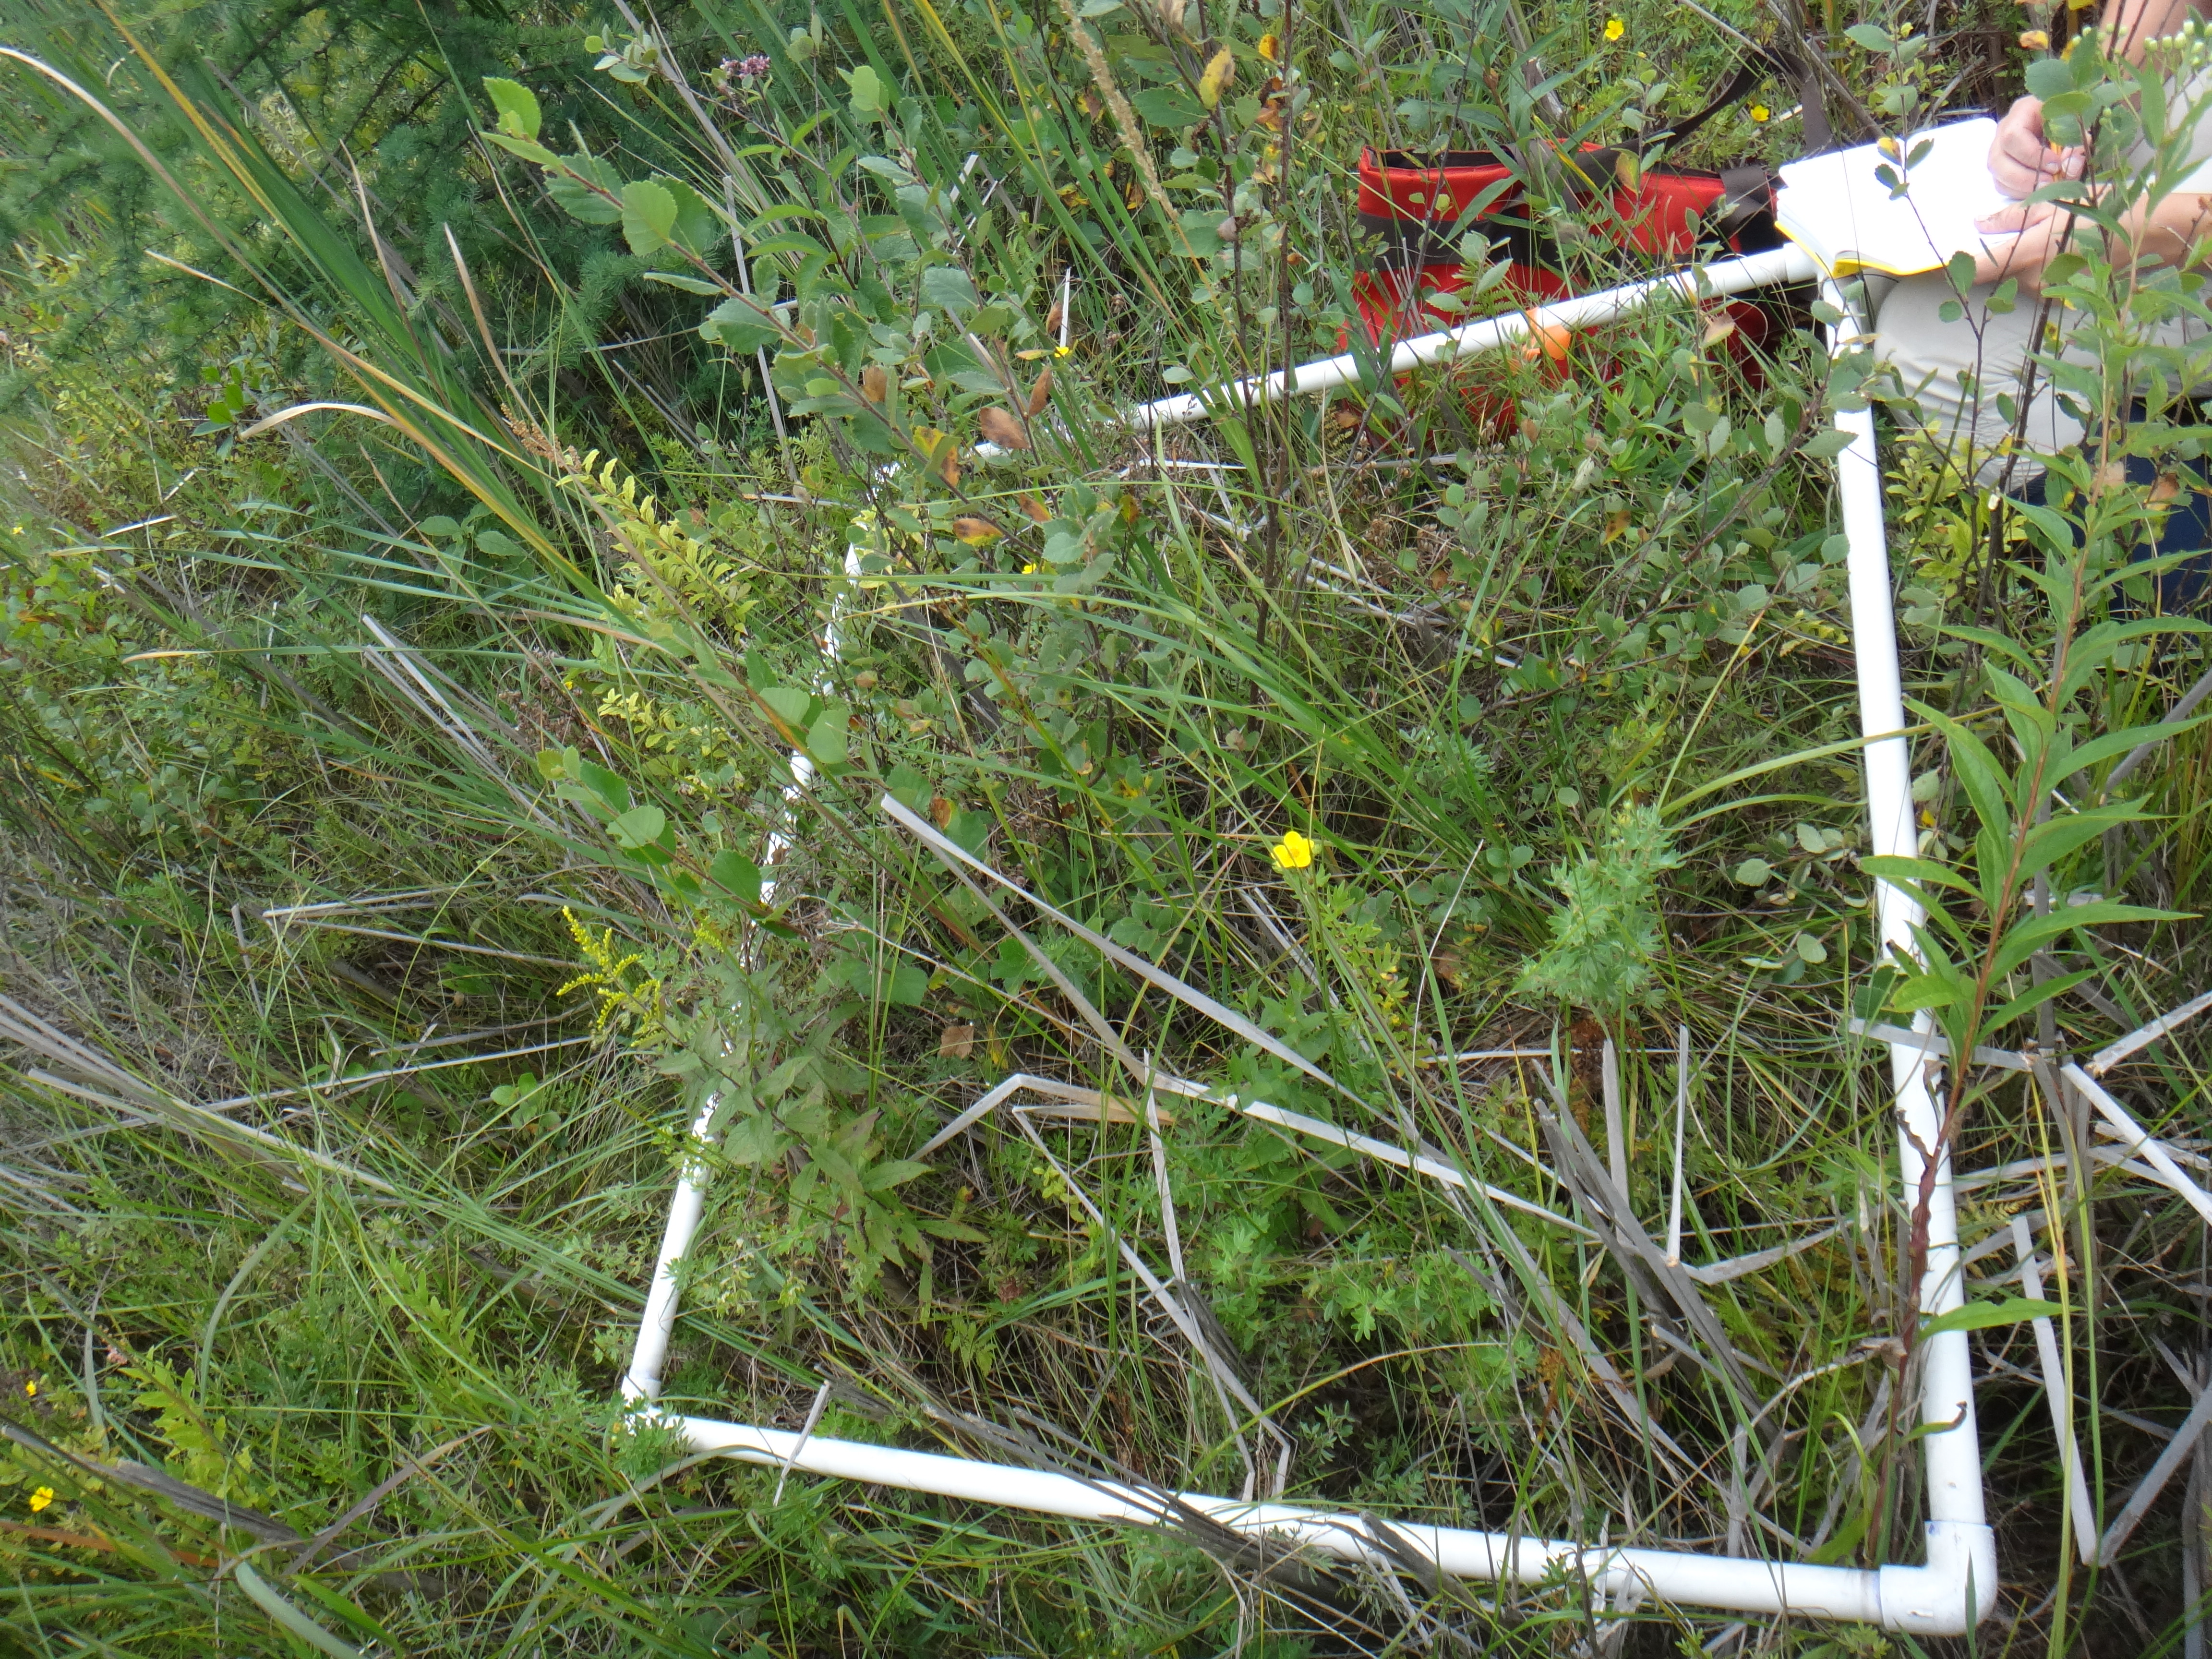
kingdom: Plantae
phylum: Tracheophyta
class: Magnoliopsida
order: Rosales
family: Rosaceae
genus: Spiraea
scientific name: Spiraea alba
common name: Pale bridewort
